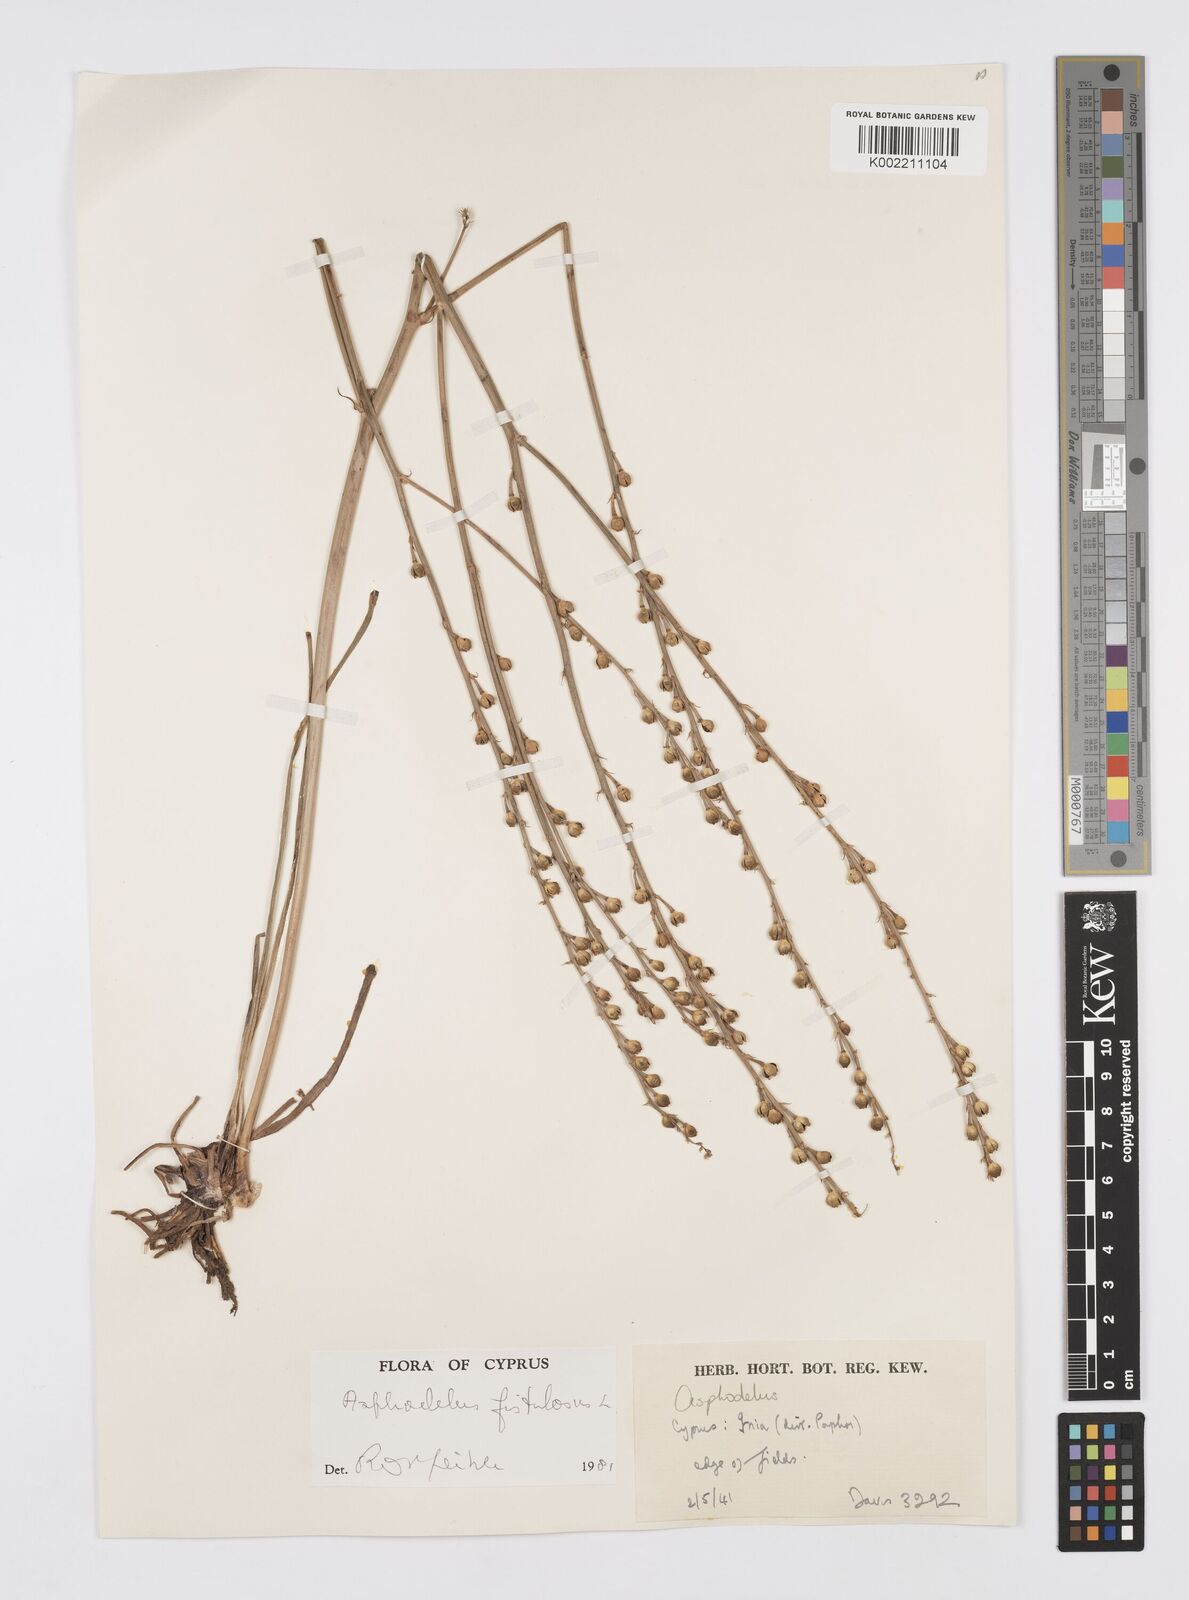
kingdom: Plantae
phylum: Tracheophyta
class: Liliopsida
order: Asparagales
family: Asphodelaceae
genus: Asphodelus
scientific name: Asphodelus fistulosus
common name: Onionweed
